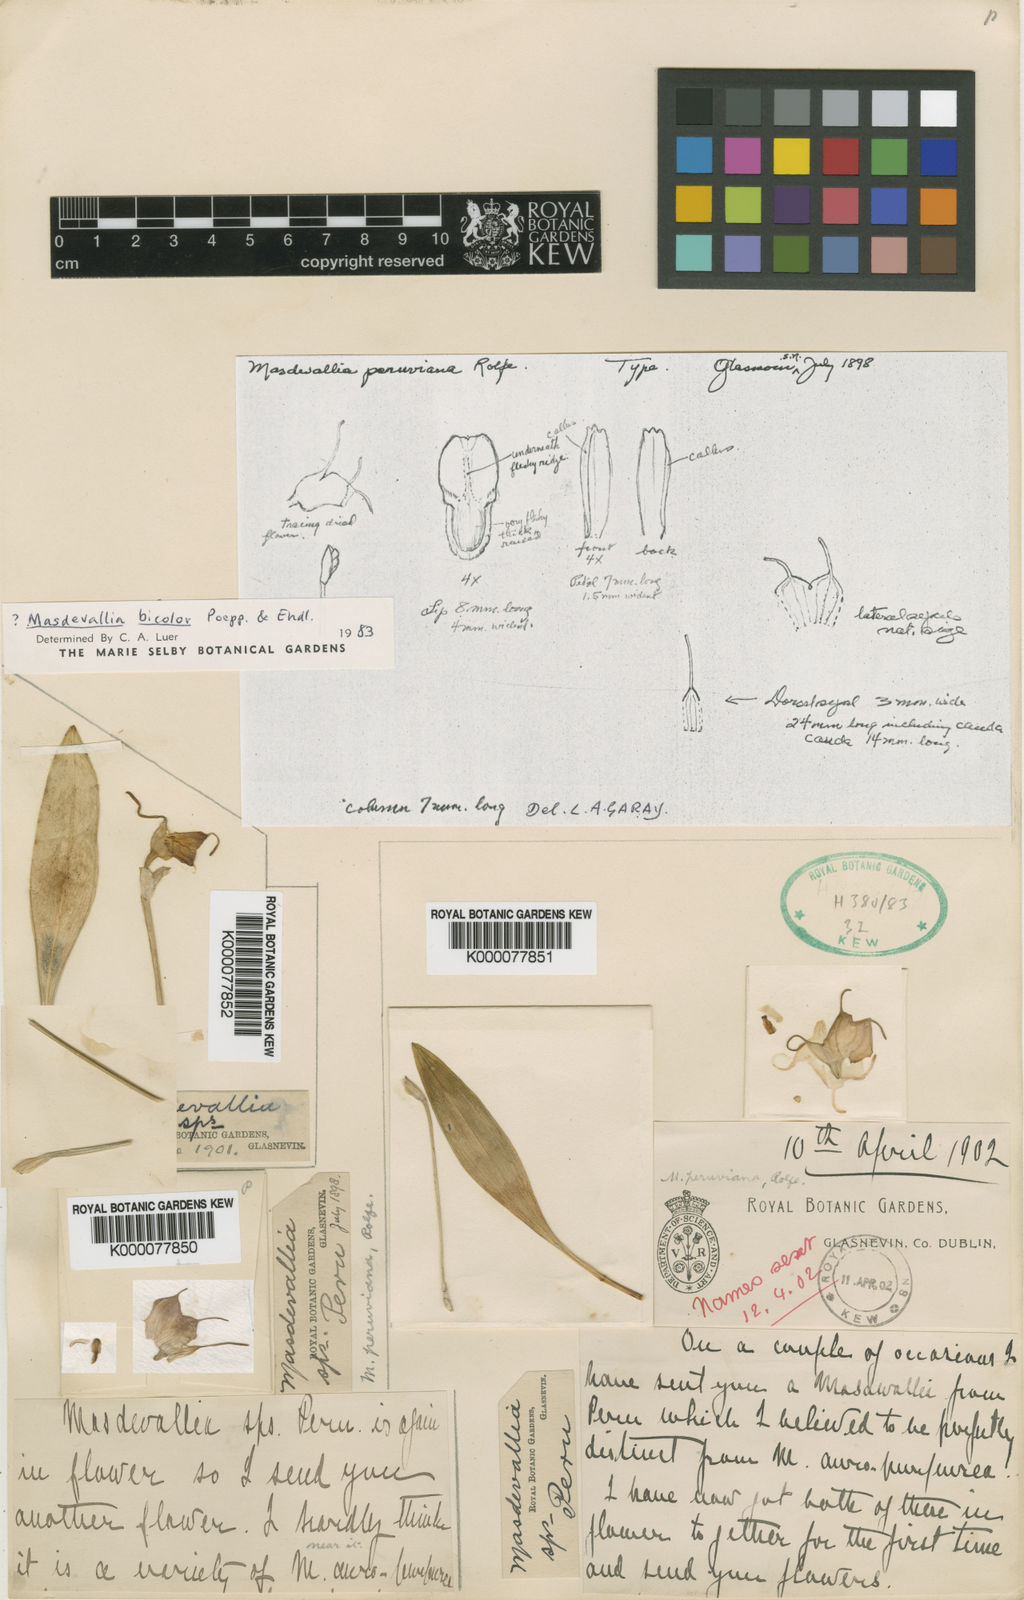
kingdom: Plantae
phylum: Tracheophyta
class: Liliopsida
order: Asparagales
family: Orchidaceae
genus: Masdevallia
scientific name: Masdevallia bicolor
